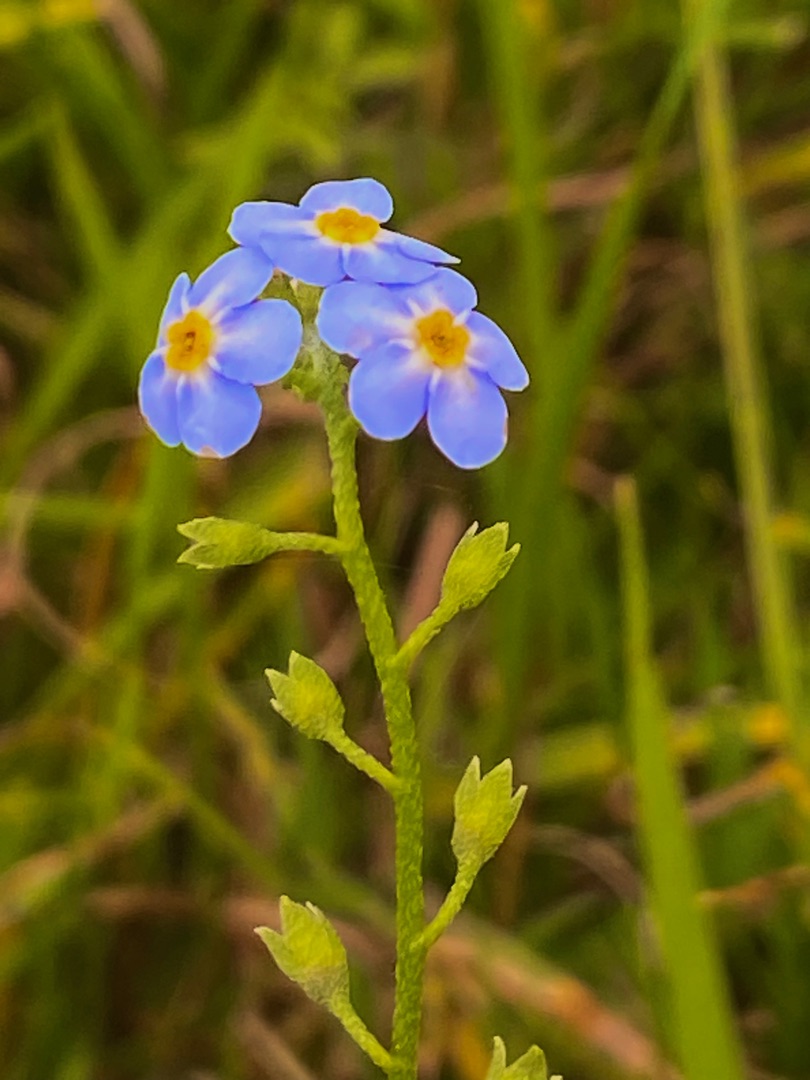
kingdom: Plantae
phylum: Tracheophyta
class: Magnoliopsida
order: Boraginales
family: Boraginaceae
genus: Myosotis
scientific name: Myosotis scorpioides
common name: Eng-forglemmigej
